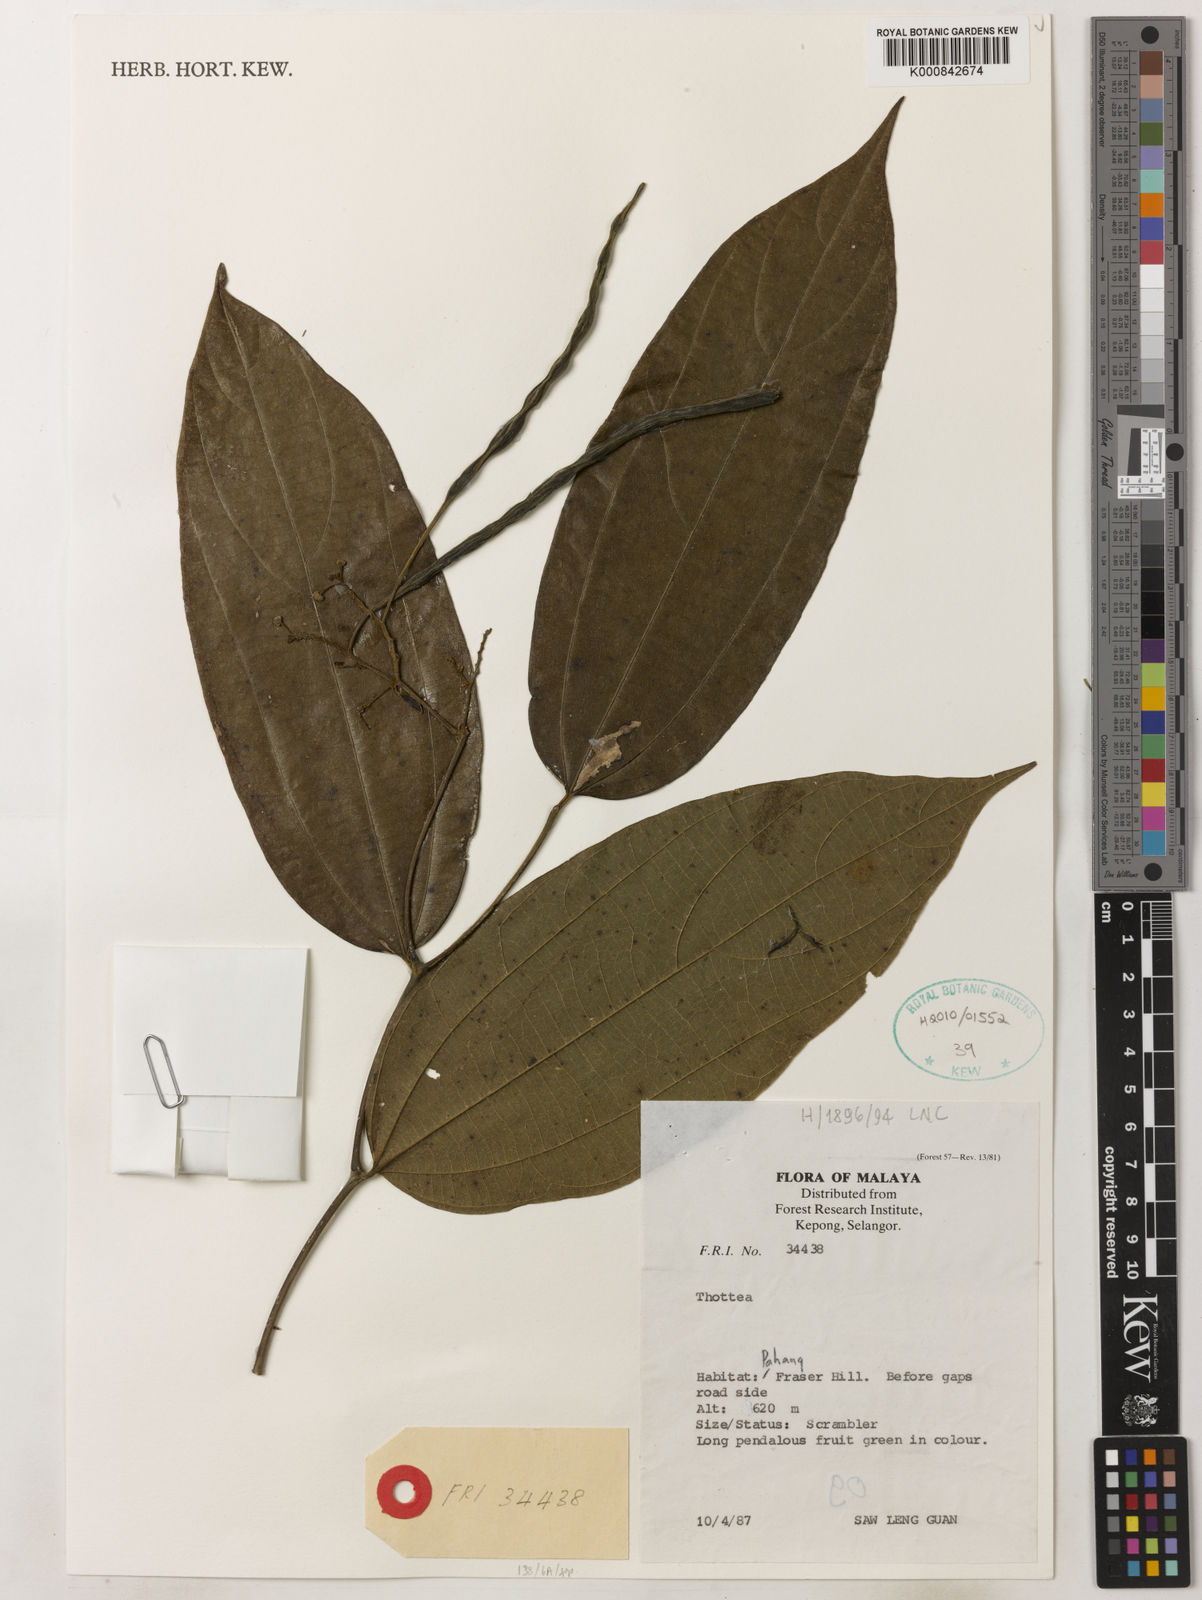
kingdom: Plantae
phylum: Tracheophyta
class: Magnoliopsida
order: Piperales
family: Aristolochiaceae
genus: Thottea
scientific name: Thottea piperiformis
